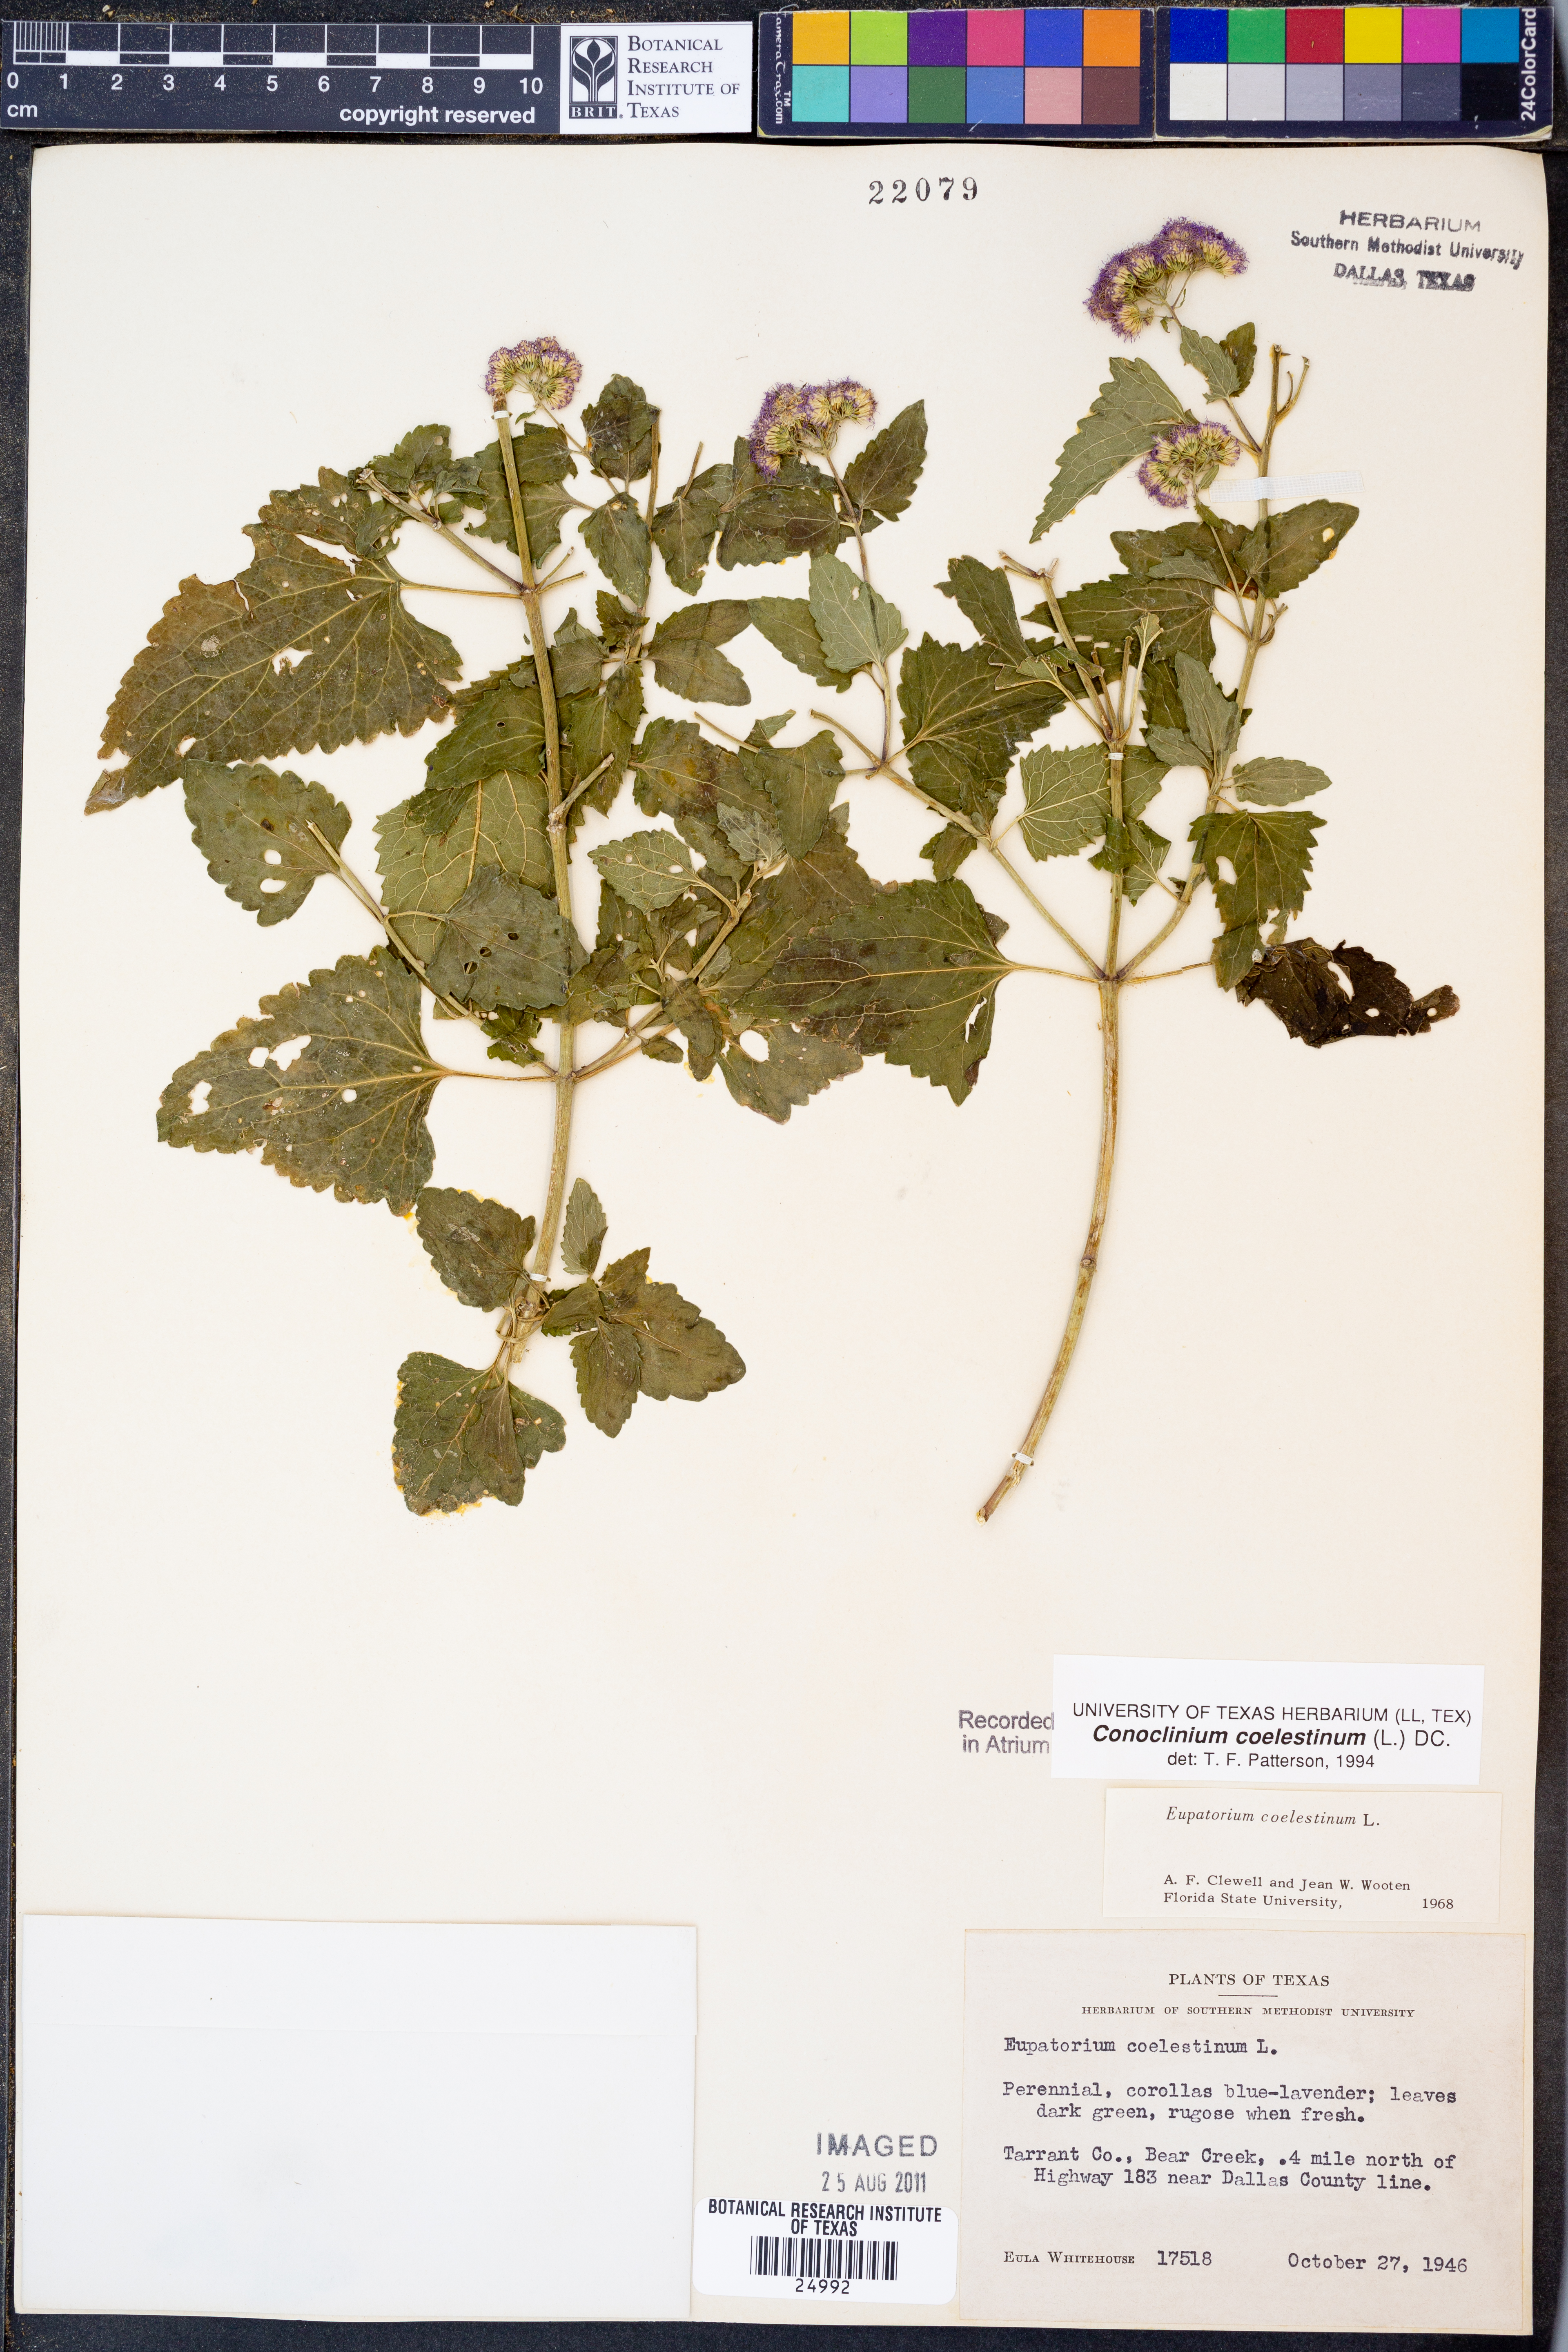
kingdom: Plantae
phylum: Tracheophyta
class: Magnoliopsida
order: Asterales
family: Asteraceae
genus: Conoclinium
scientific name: Conoclinium coelestinum
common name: Blue mistflower
